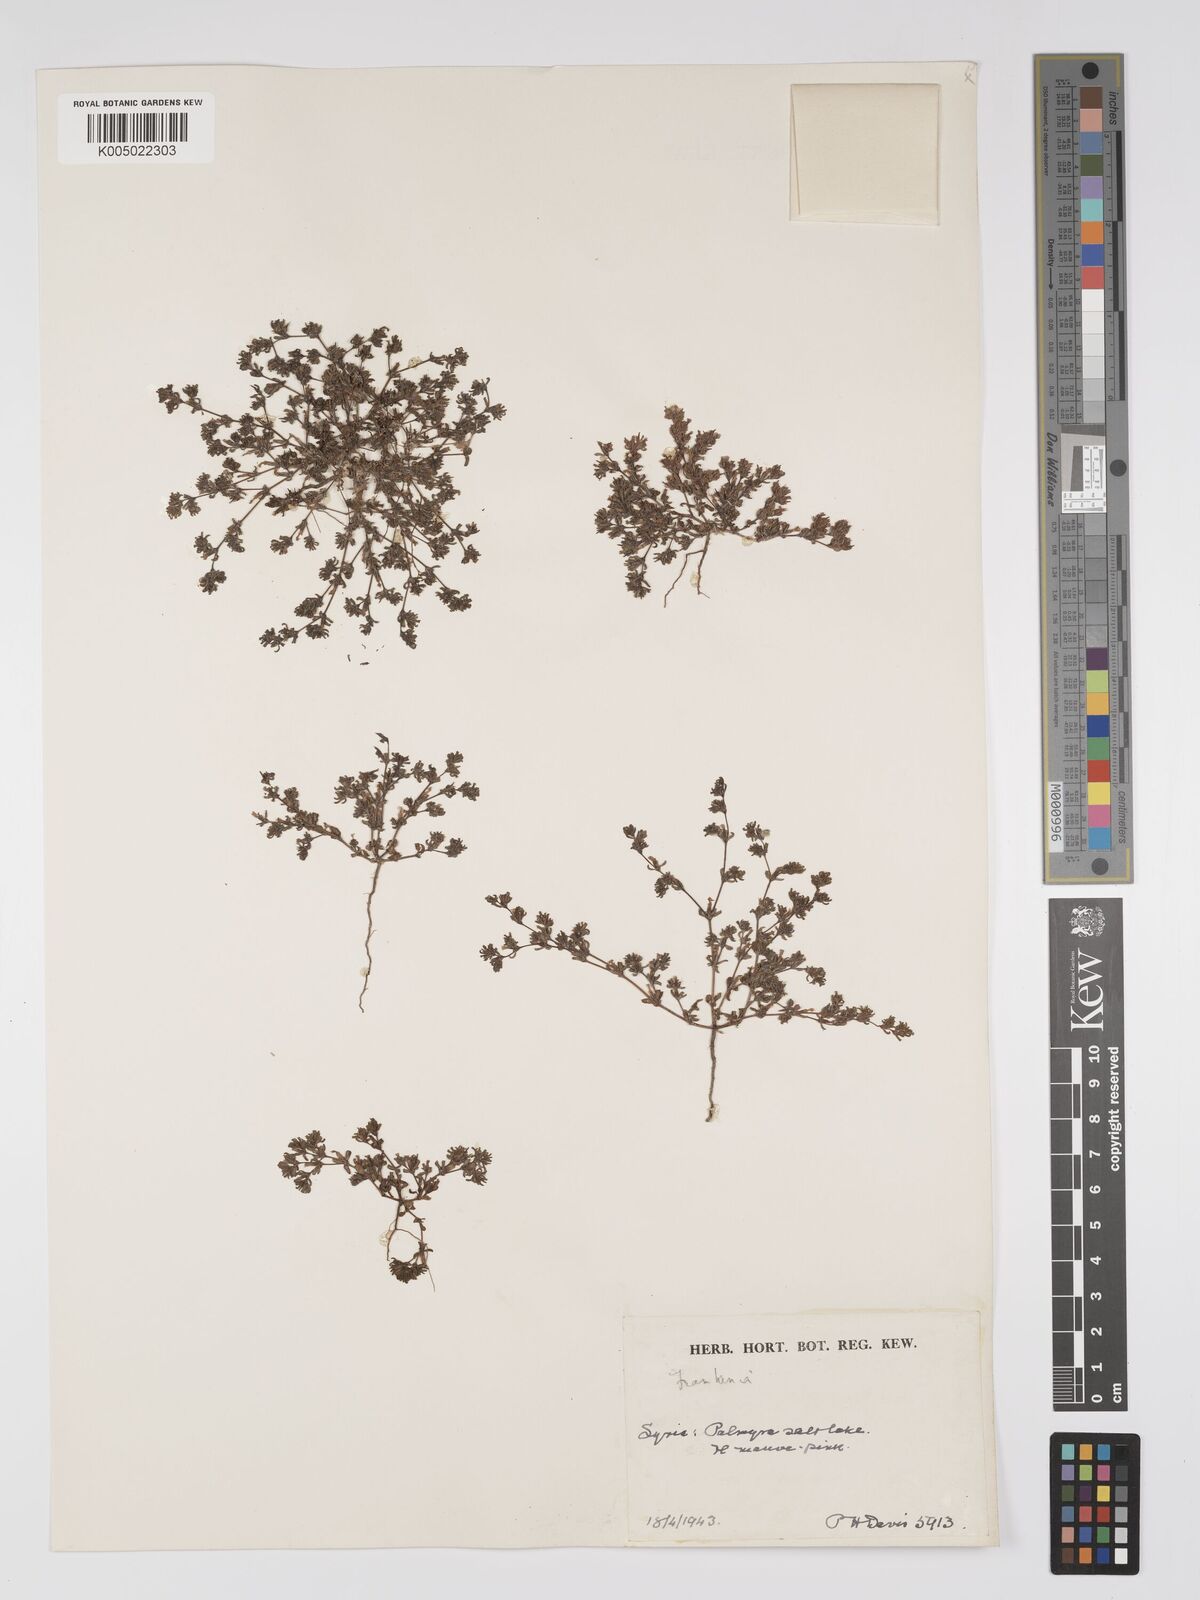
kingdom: Plantae
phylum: Tracheophyta
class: Magnoliopsida
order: Caryophyllales
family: Frankeniaceae
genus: Frankenia
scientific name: Frankenia pulverulenta
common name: European seaheath
